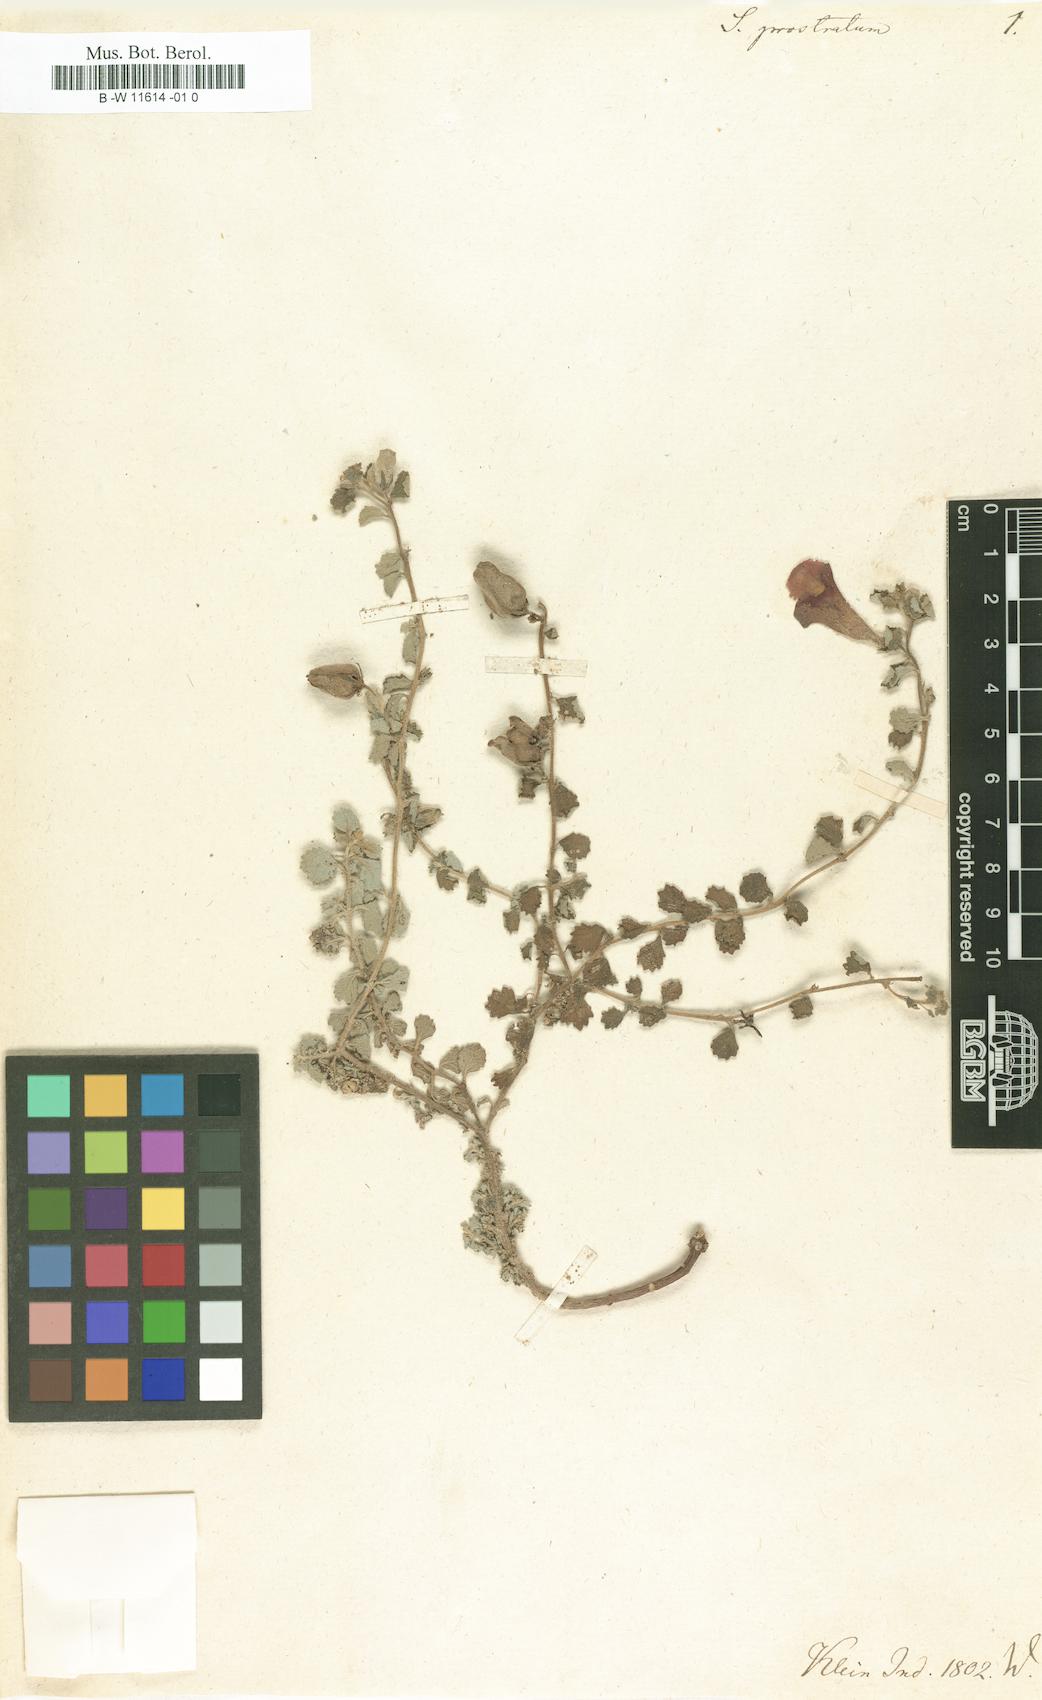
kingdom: Plantae
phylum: Tracheophyta
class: Magnoliopsida
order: Lamiales
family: Pedaliaceae
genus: Sesamum
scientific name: Sesamum prostratum
